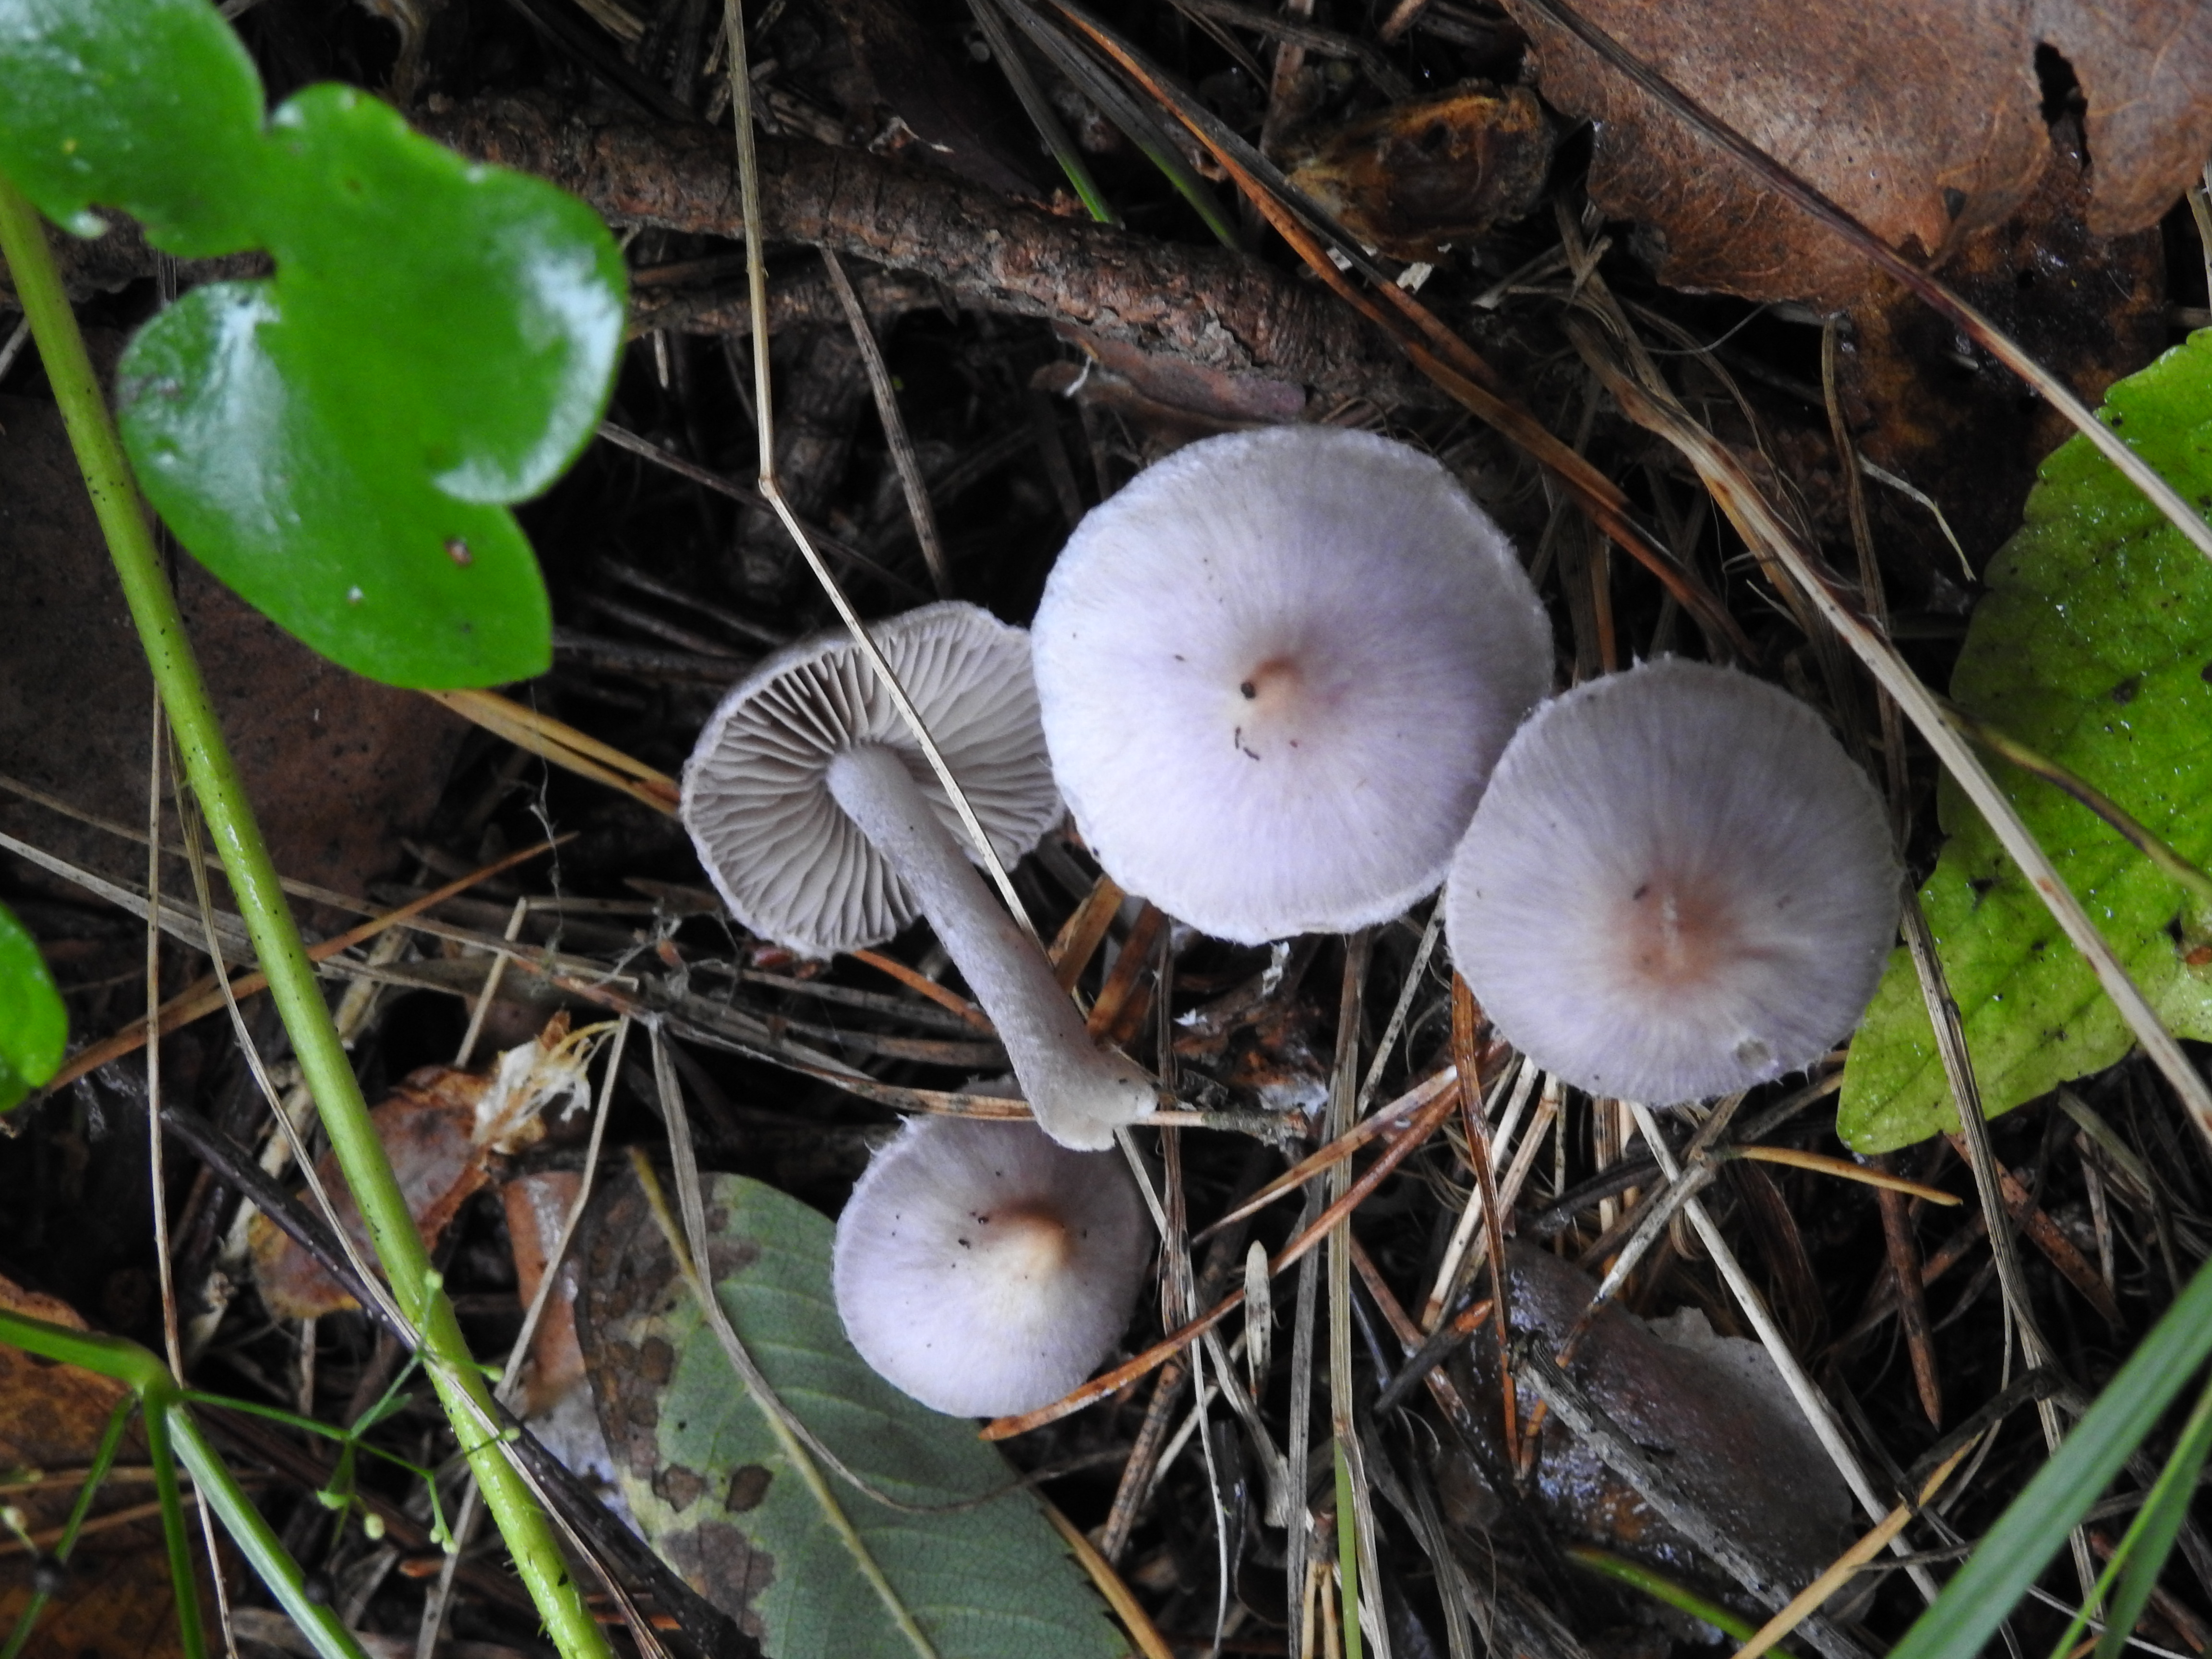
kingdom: Fungi
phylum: Basidiomycota
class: Agaricomycetes
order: Agaricales
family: Inocybaceae
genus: Inocybe
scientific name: Inocybe geophylla
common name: White fibrecap
